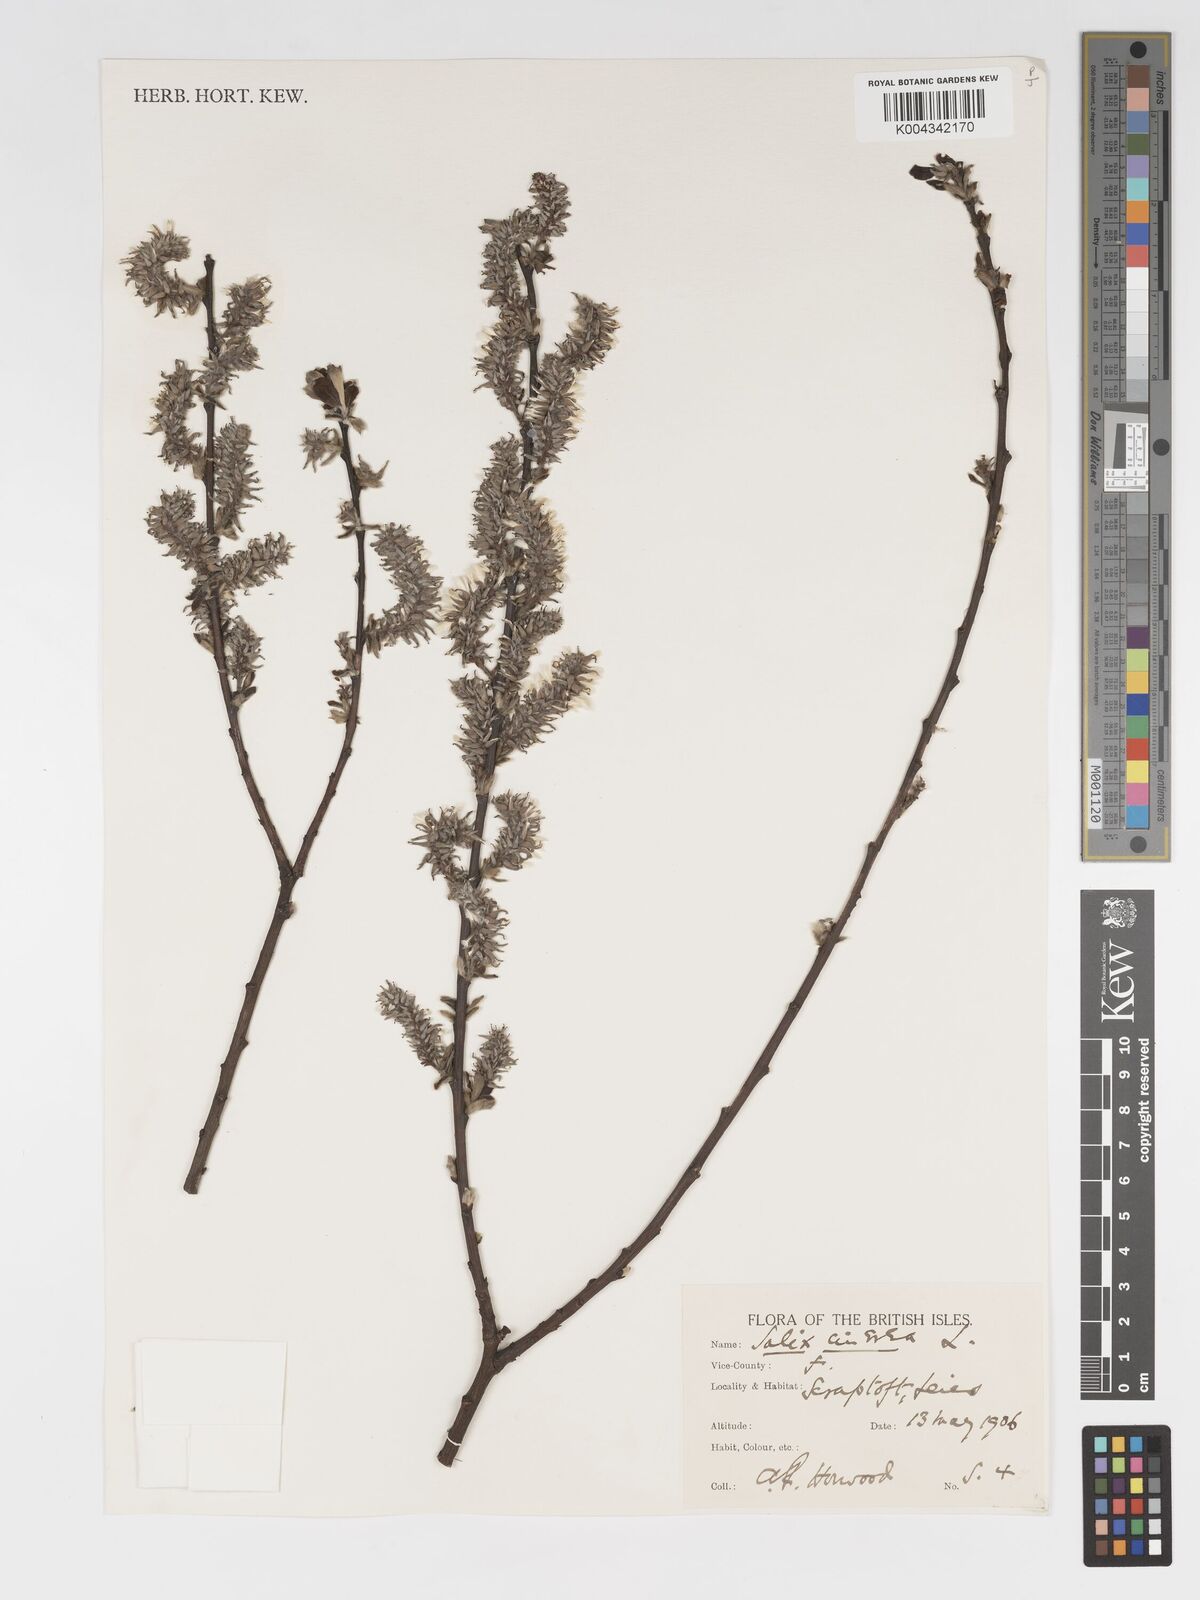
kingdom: Plantae
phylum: Tracheophyta
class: Magnoliopsida
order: Malpighiales
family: Salicaceae
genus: Salix
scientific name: Salix
